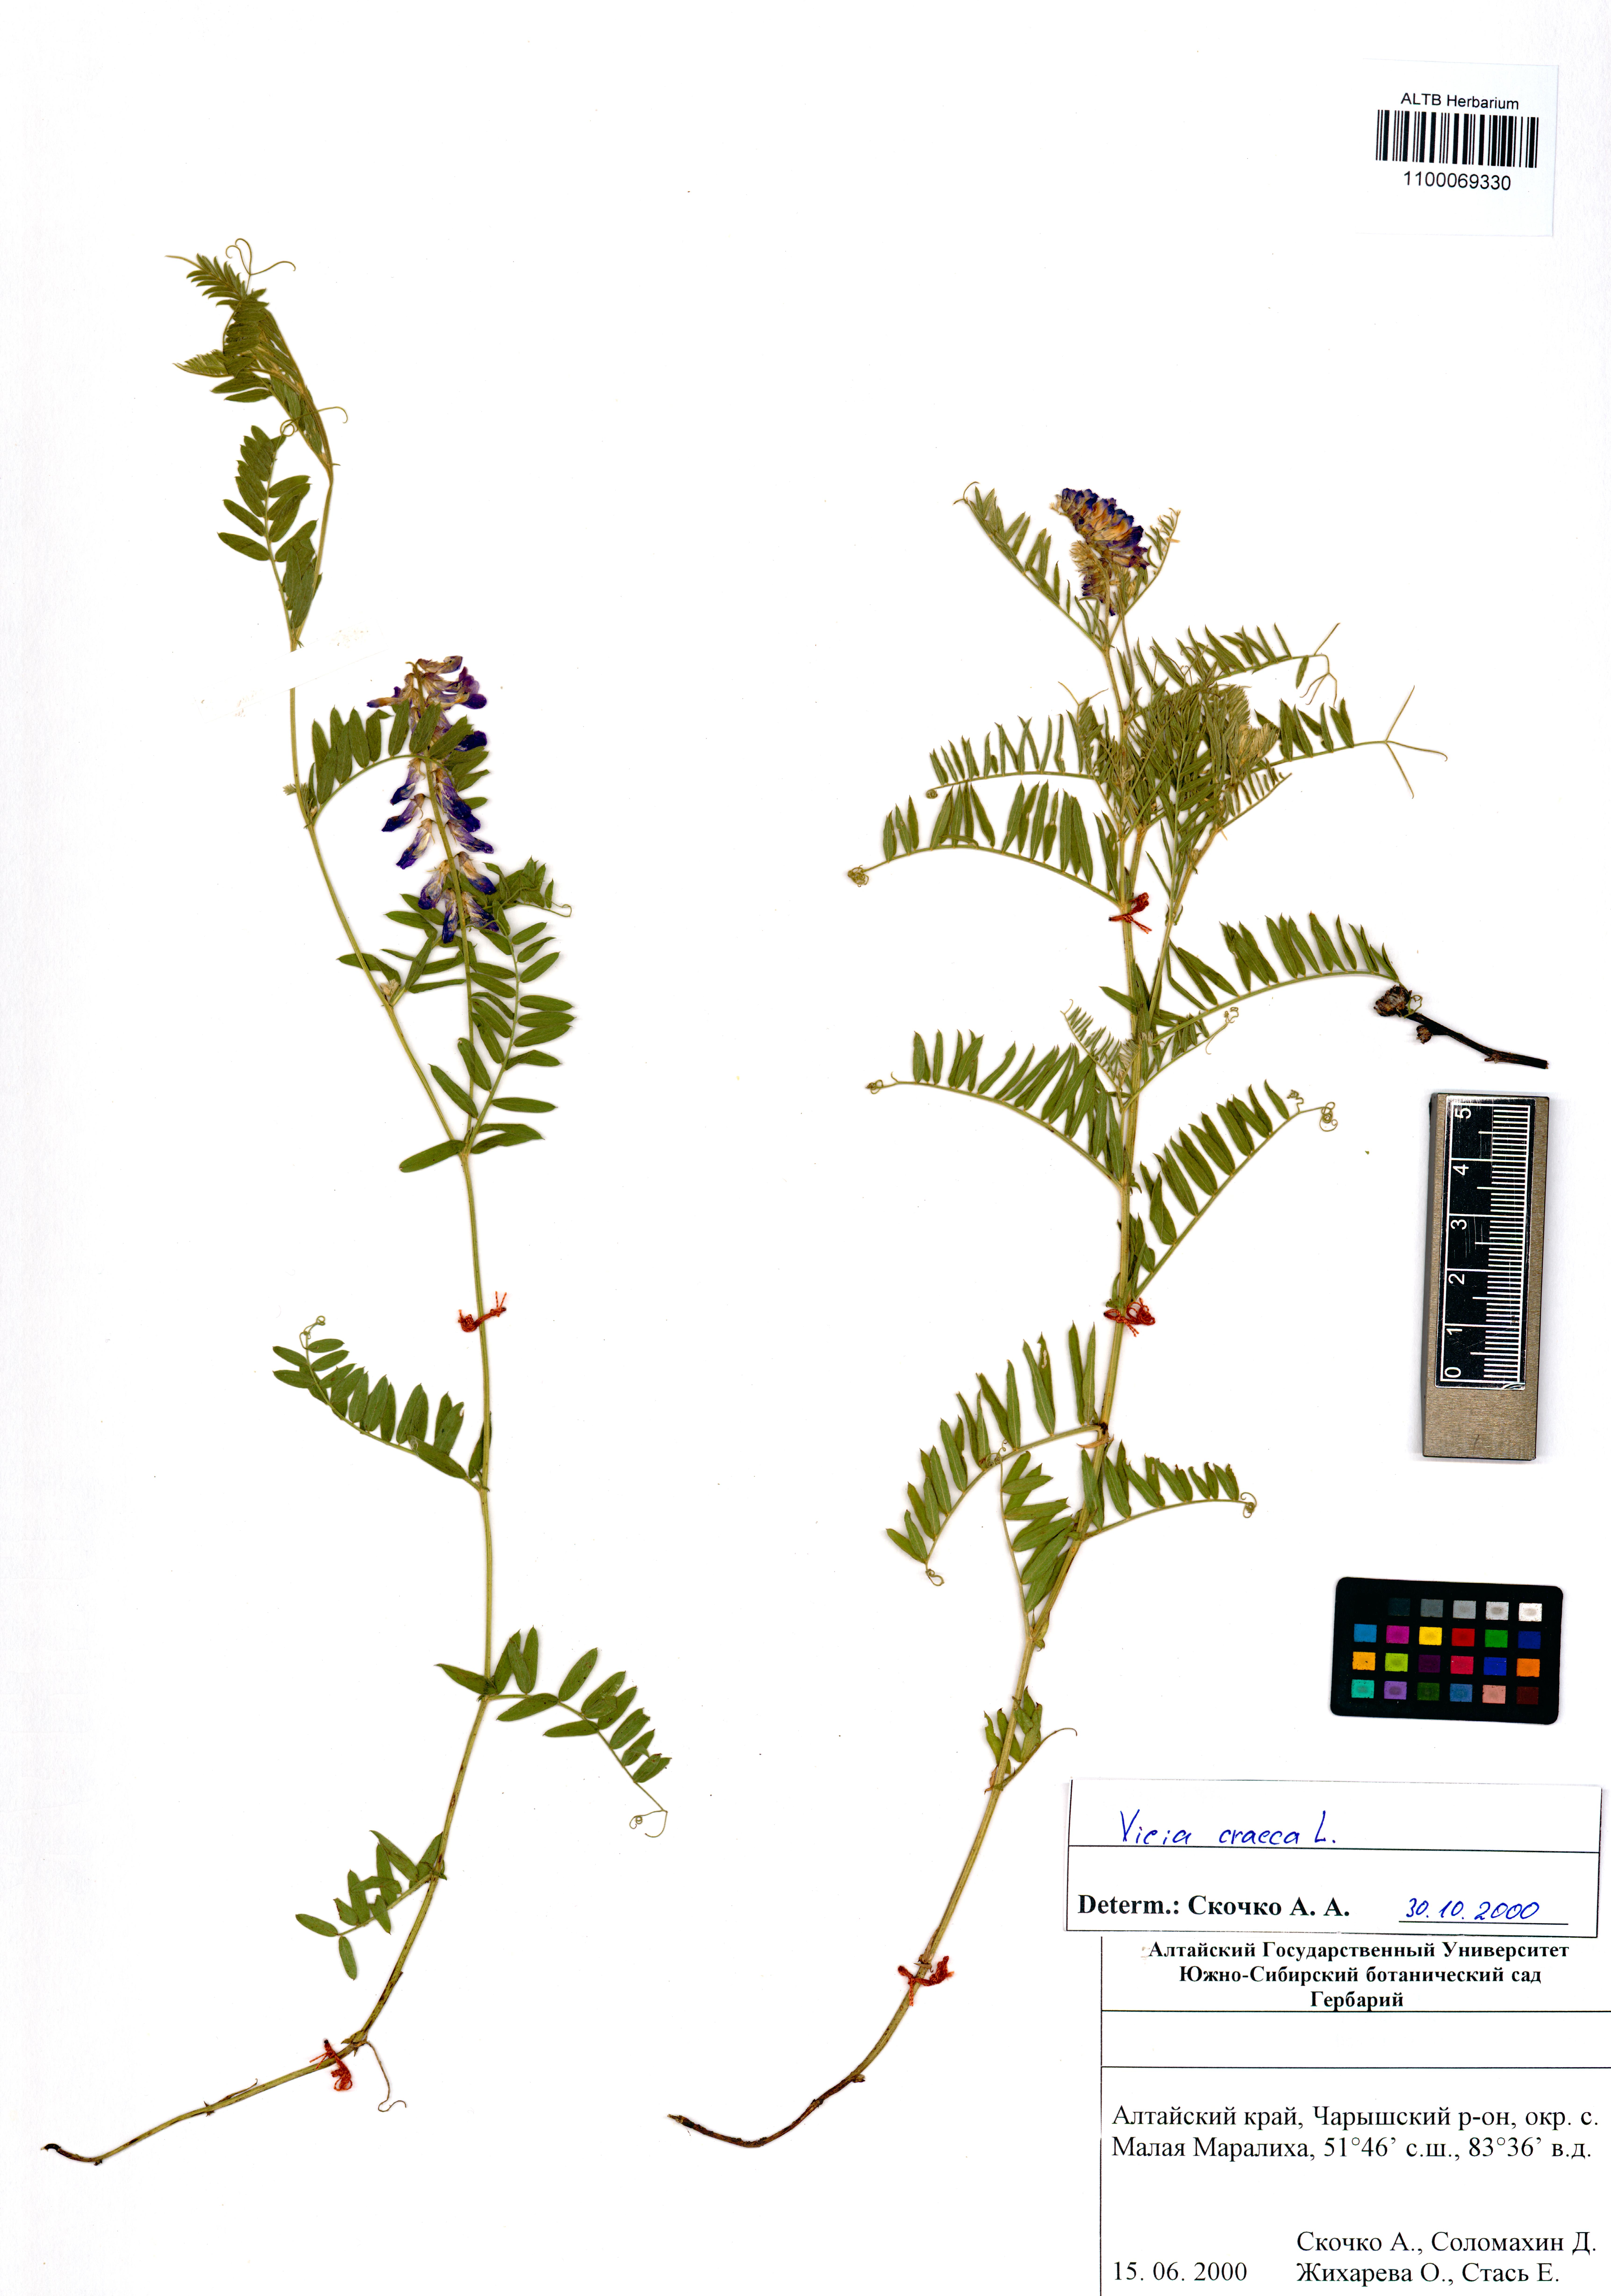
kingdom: Plantae
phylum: Tracheophyta
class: Magnoliopsida
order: Fabales
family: Fabaceae
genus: Vicia
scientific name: Vicia cracca
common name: Bird vetch
